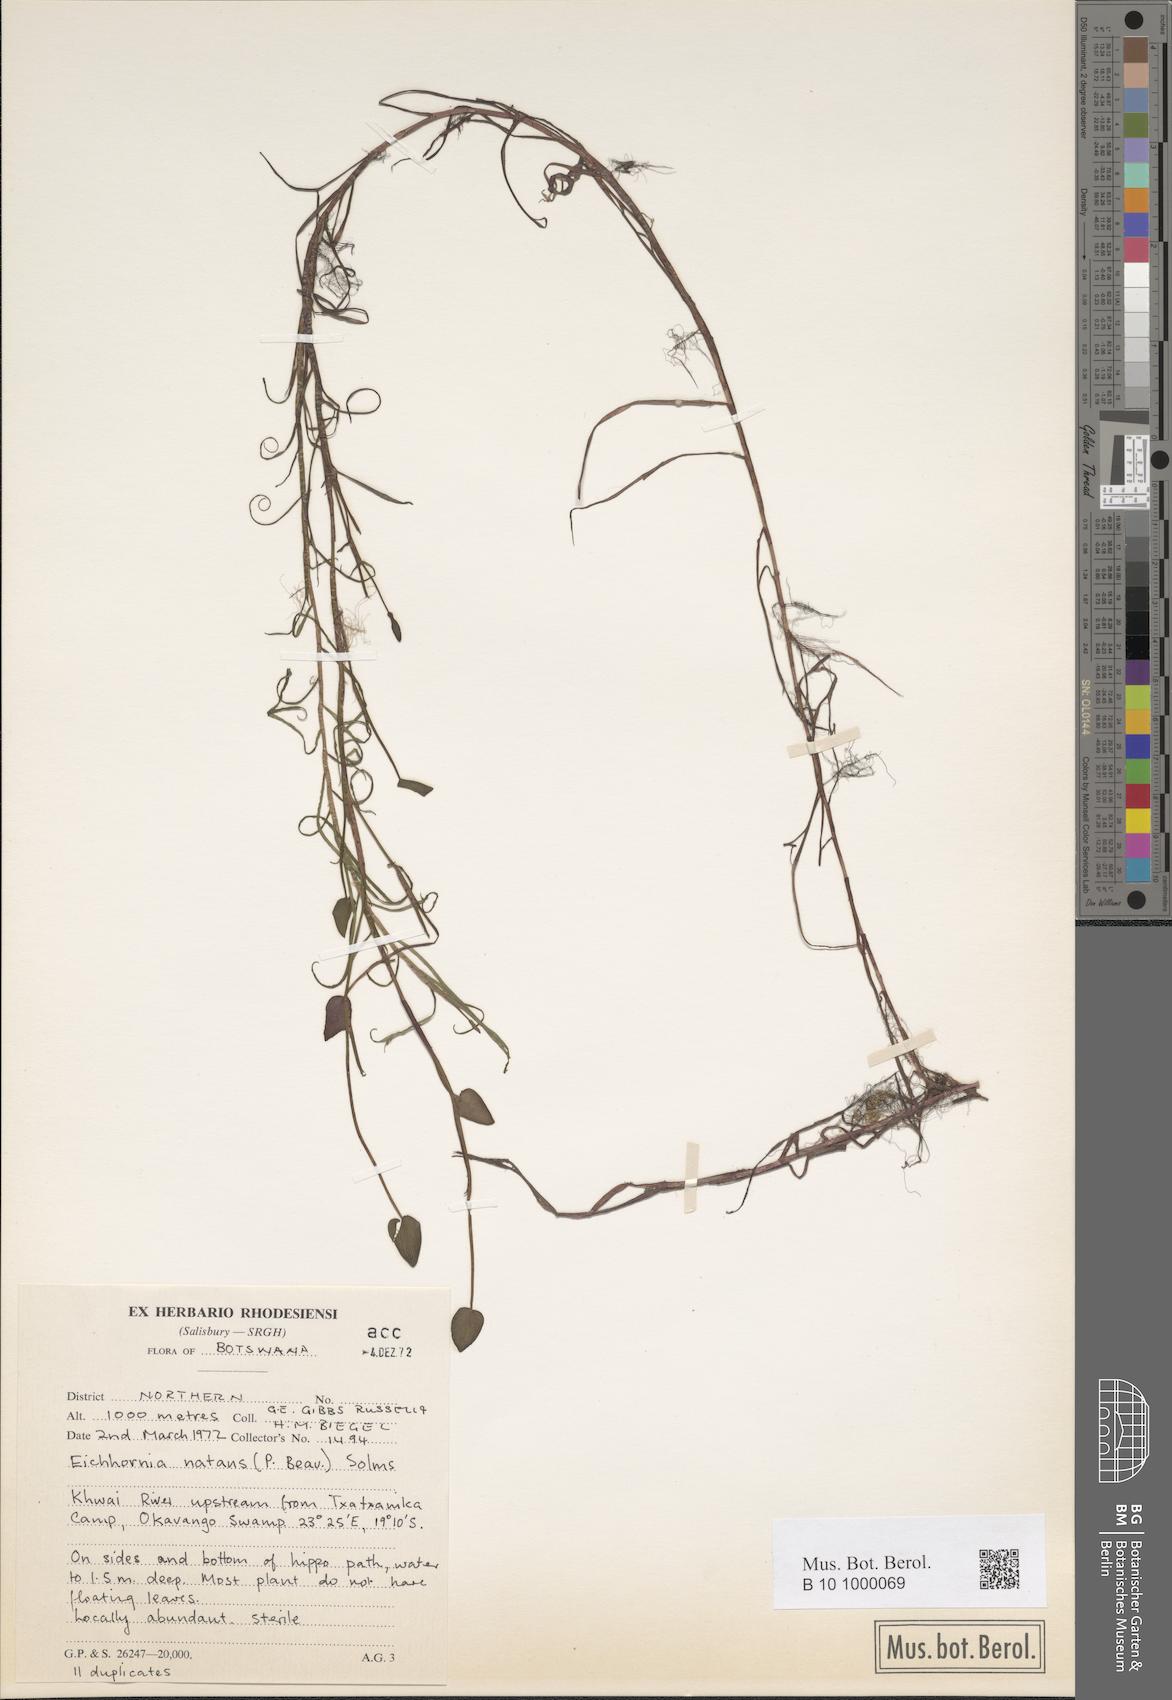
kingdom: Plantae
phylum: Tracheophyta
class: Liliopsida
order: Commelinales
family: Pontederiaceae
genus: Pontederia
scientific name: Pontederia natans
